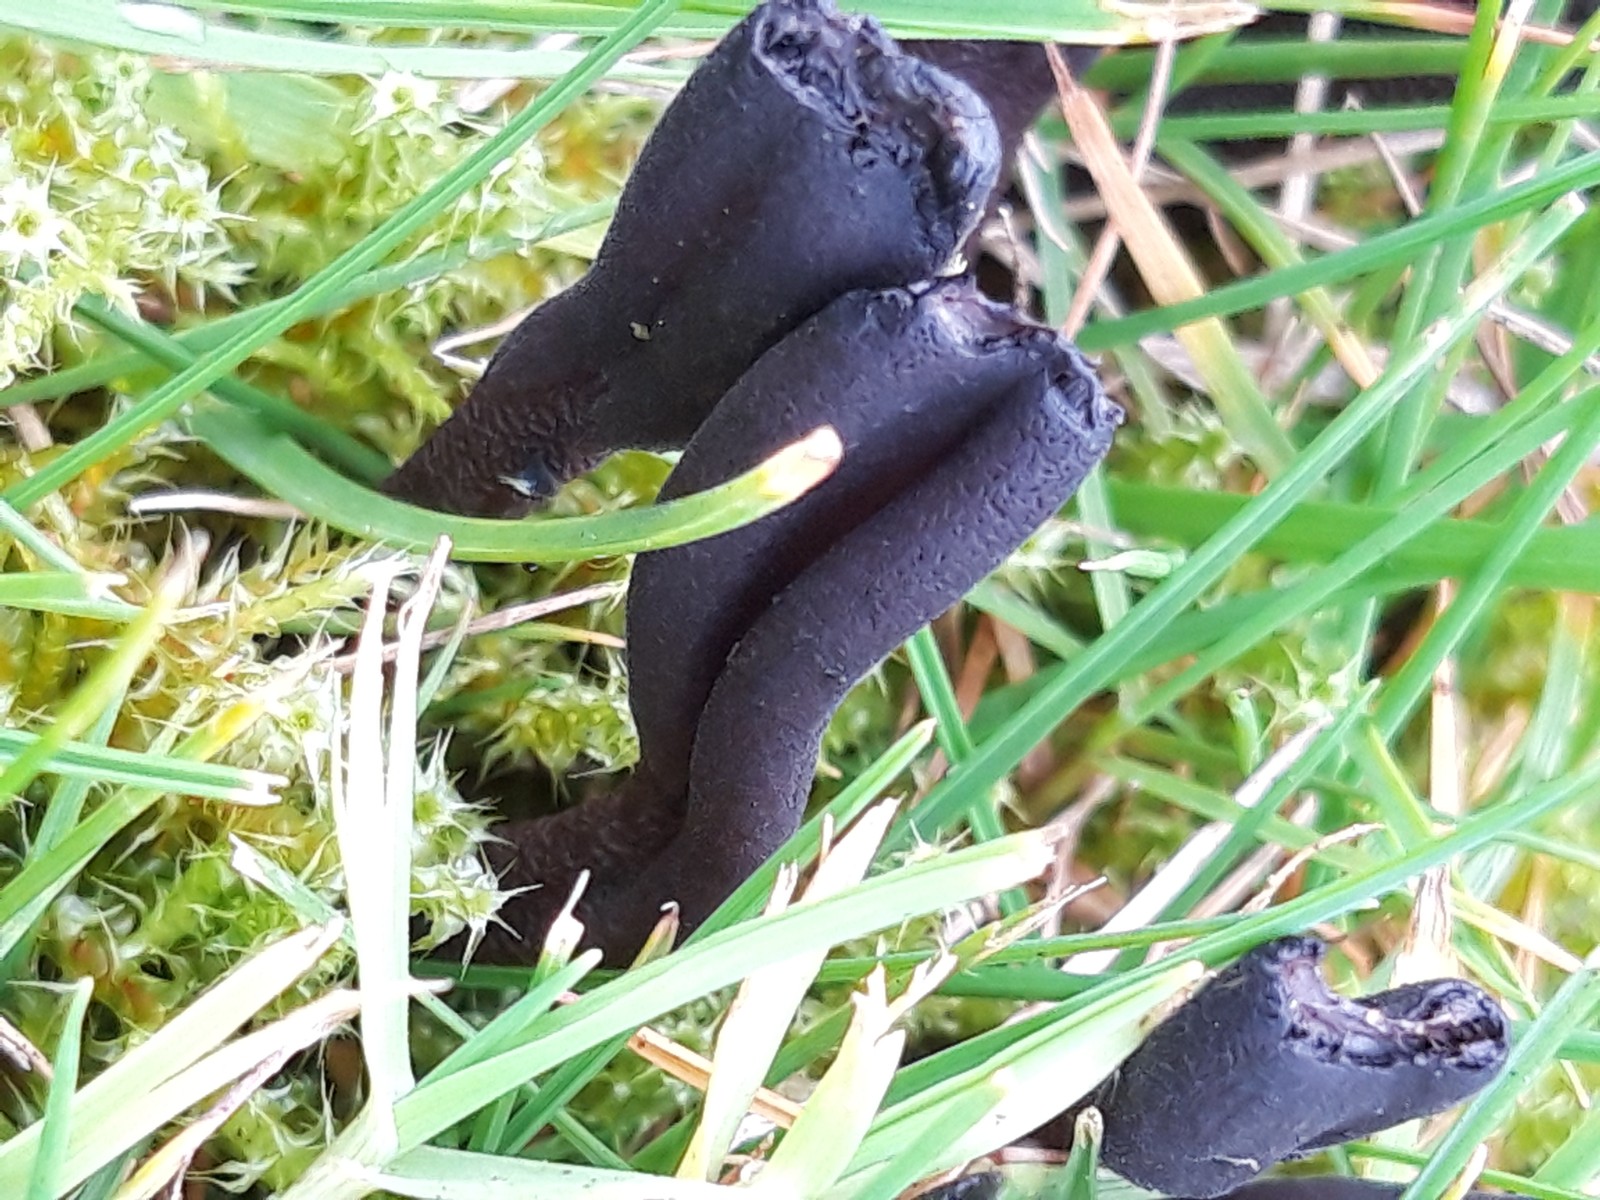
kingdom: Fungi
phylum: Ascomycota
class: Geoglossomycetes
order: Geoglossales
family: Geoglossaceae
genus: Geoglossum
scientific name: Geoglossum
